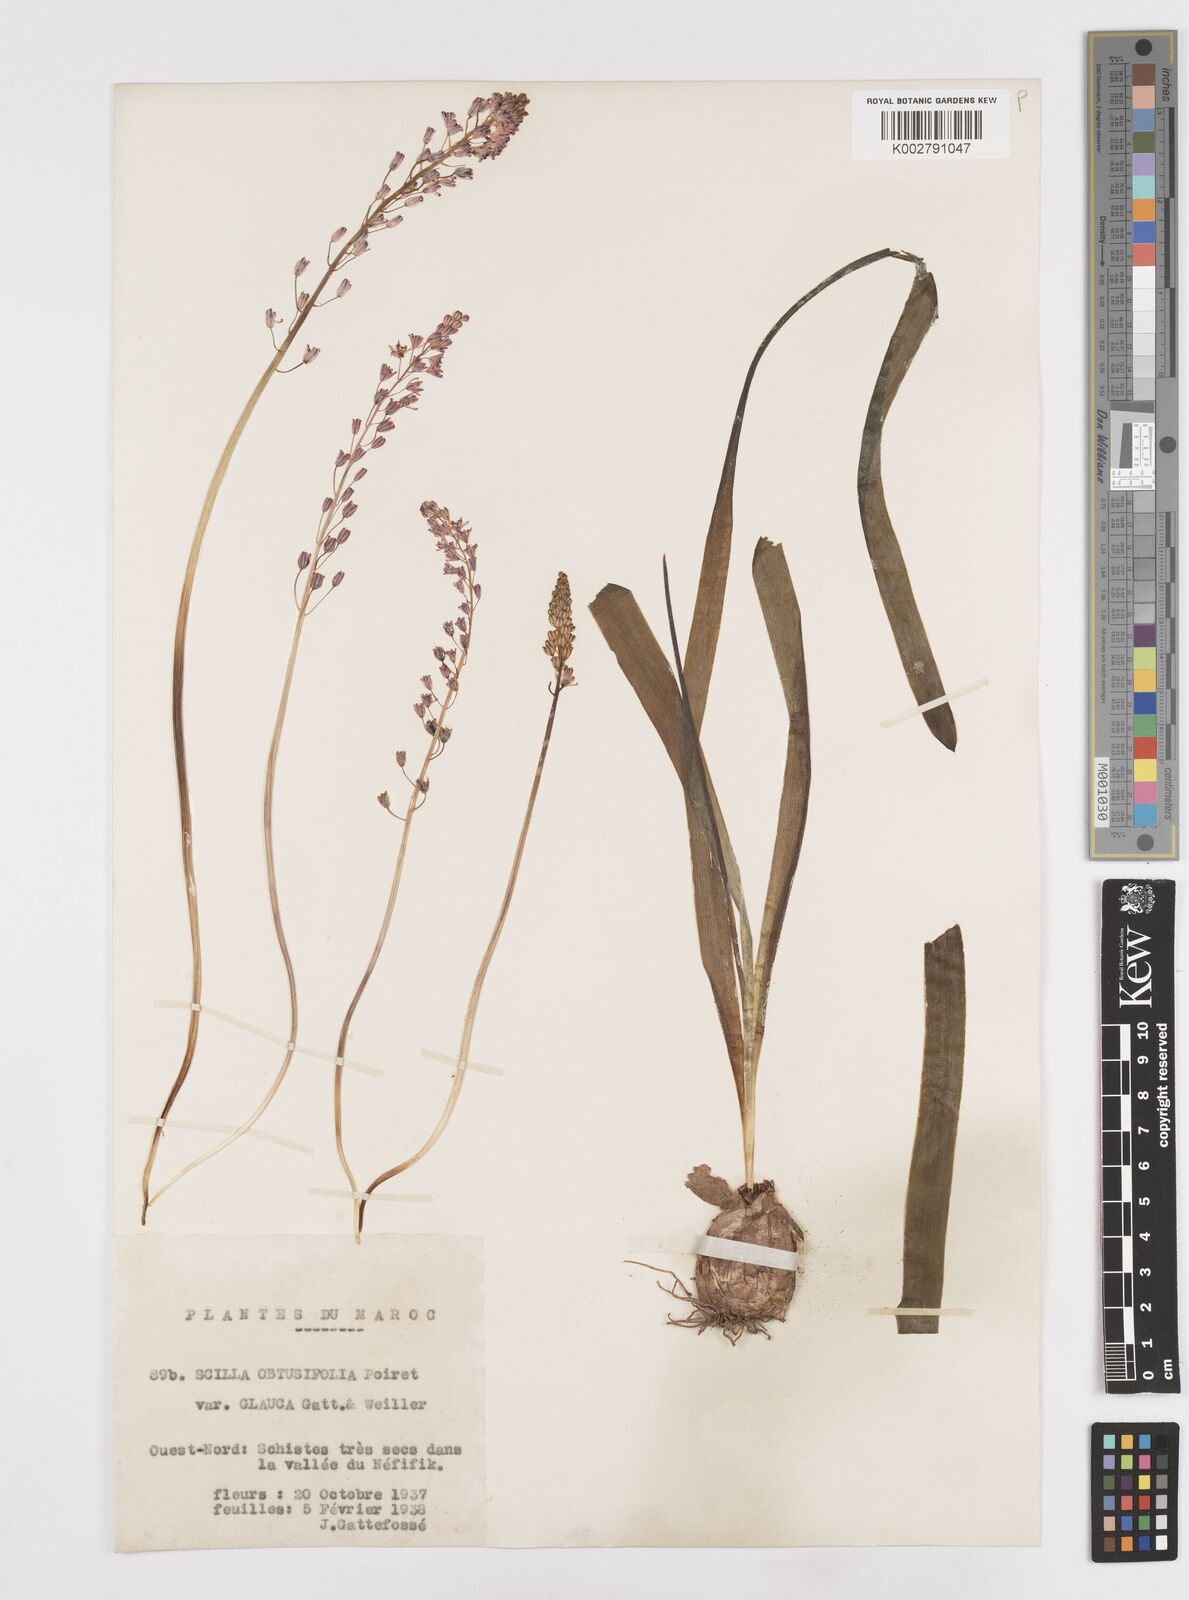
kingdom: Plantae
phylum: Tracheophyta
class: Liliopsida
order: Asparagales
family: Asparagaceae
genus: Prospero
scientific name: Prospero obtusifolium
